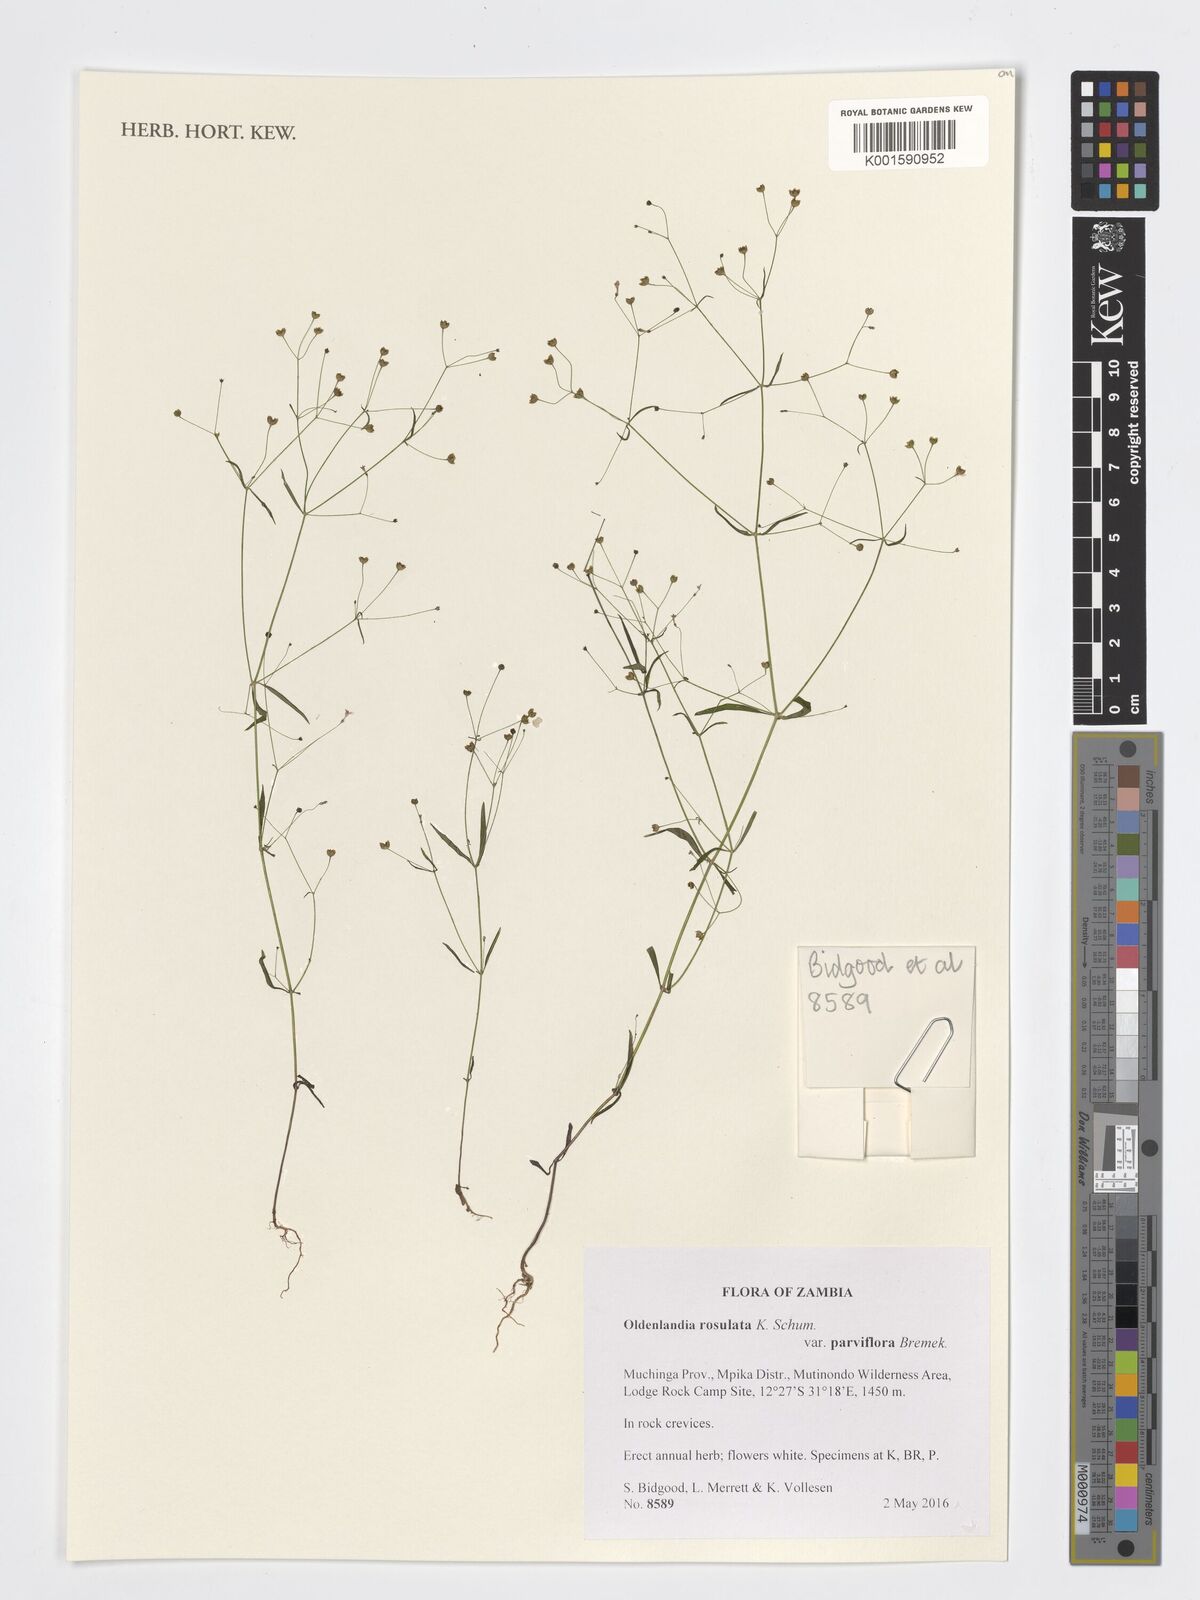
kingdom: Plantae
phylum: Tracheophyta
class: Magnoliopsida
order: Gentianales
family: Rubiaceae
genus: Oldenlandia
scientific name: Oldenlandia rosulata
